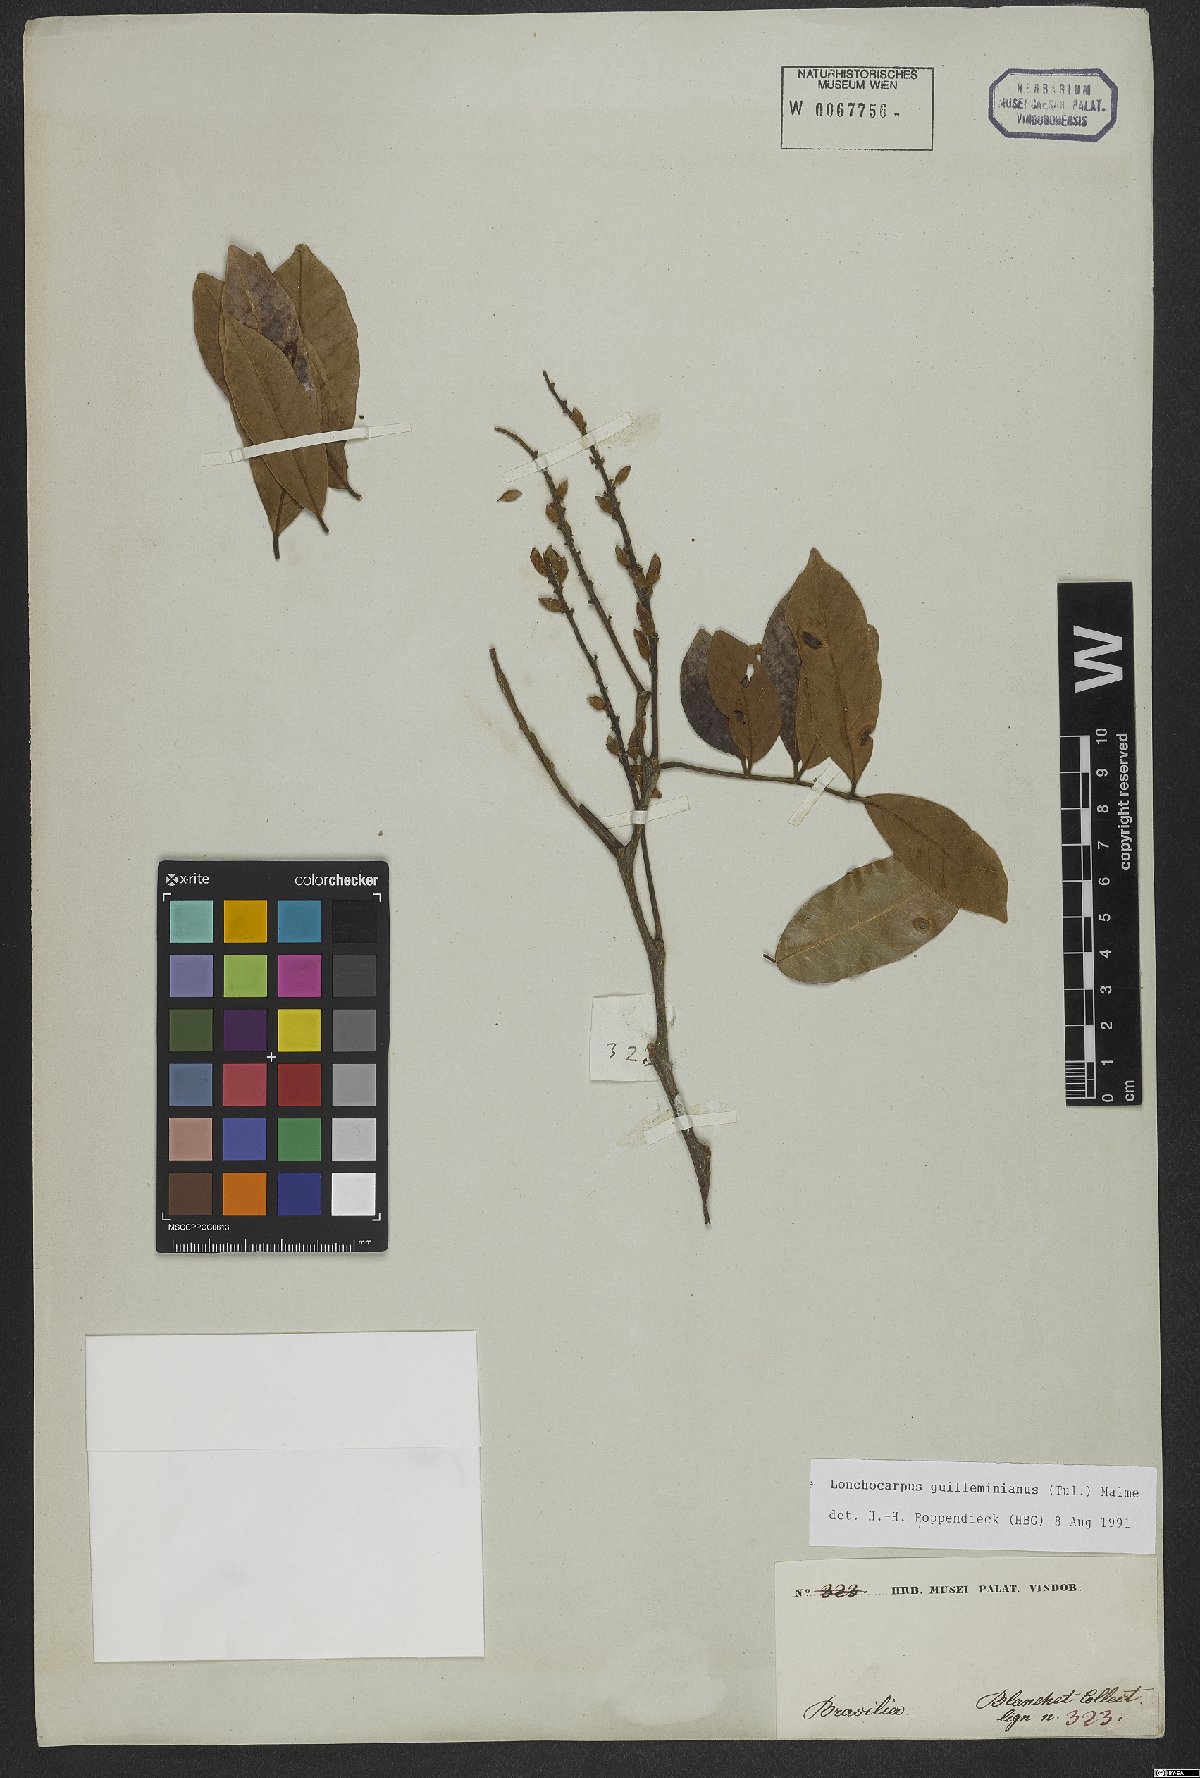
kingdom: Plantae
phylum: Tracheophyta
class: Magnoliopsida
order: Fabales
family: Fabaceae
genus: Lonchocarpus
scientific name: Lonchocarpus cultratus
